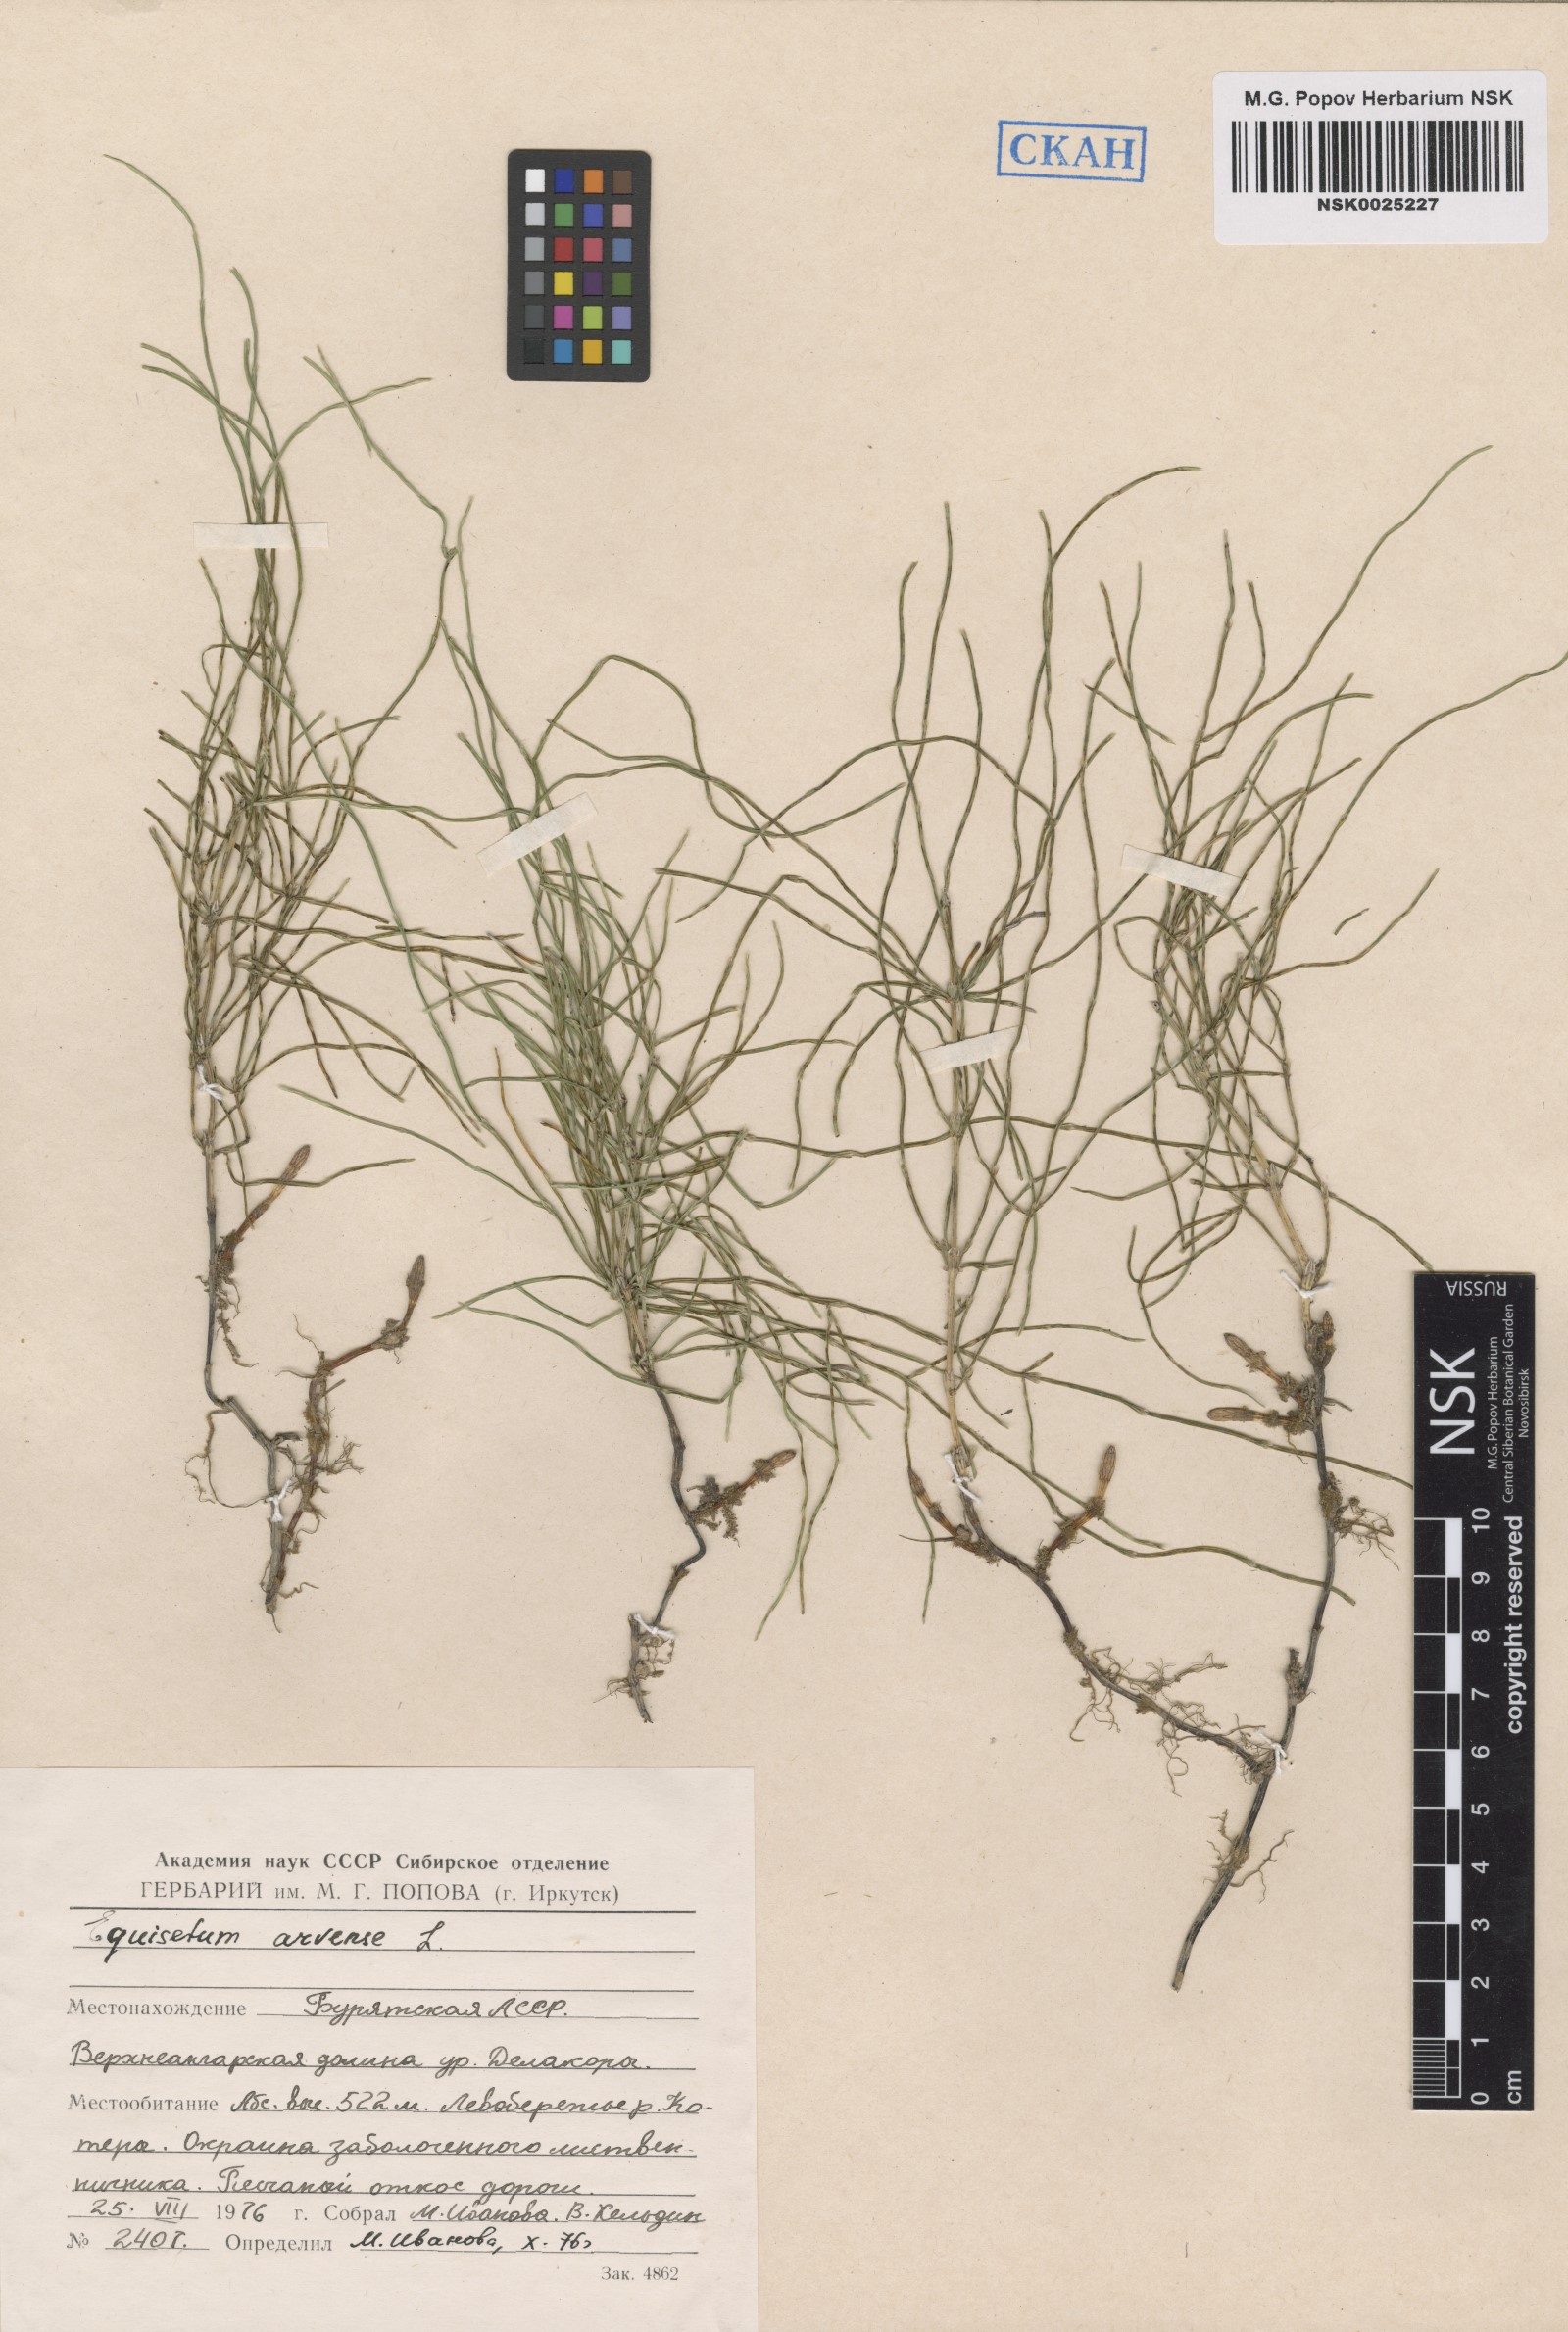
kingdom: Plantae
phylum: Tracheophyta
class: Polypodiopsida
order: Equisetales
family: Equisetaceae
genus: Equisetum
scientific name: Equisetum arvense
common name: Field horsetail
